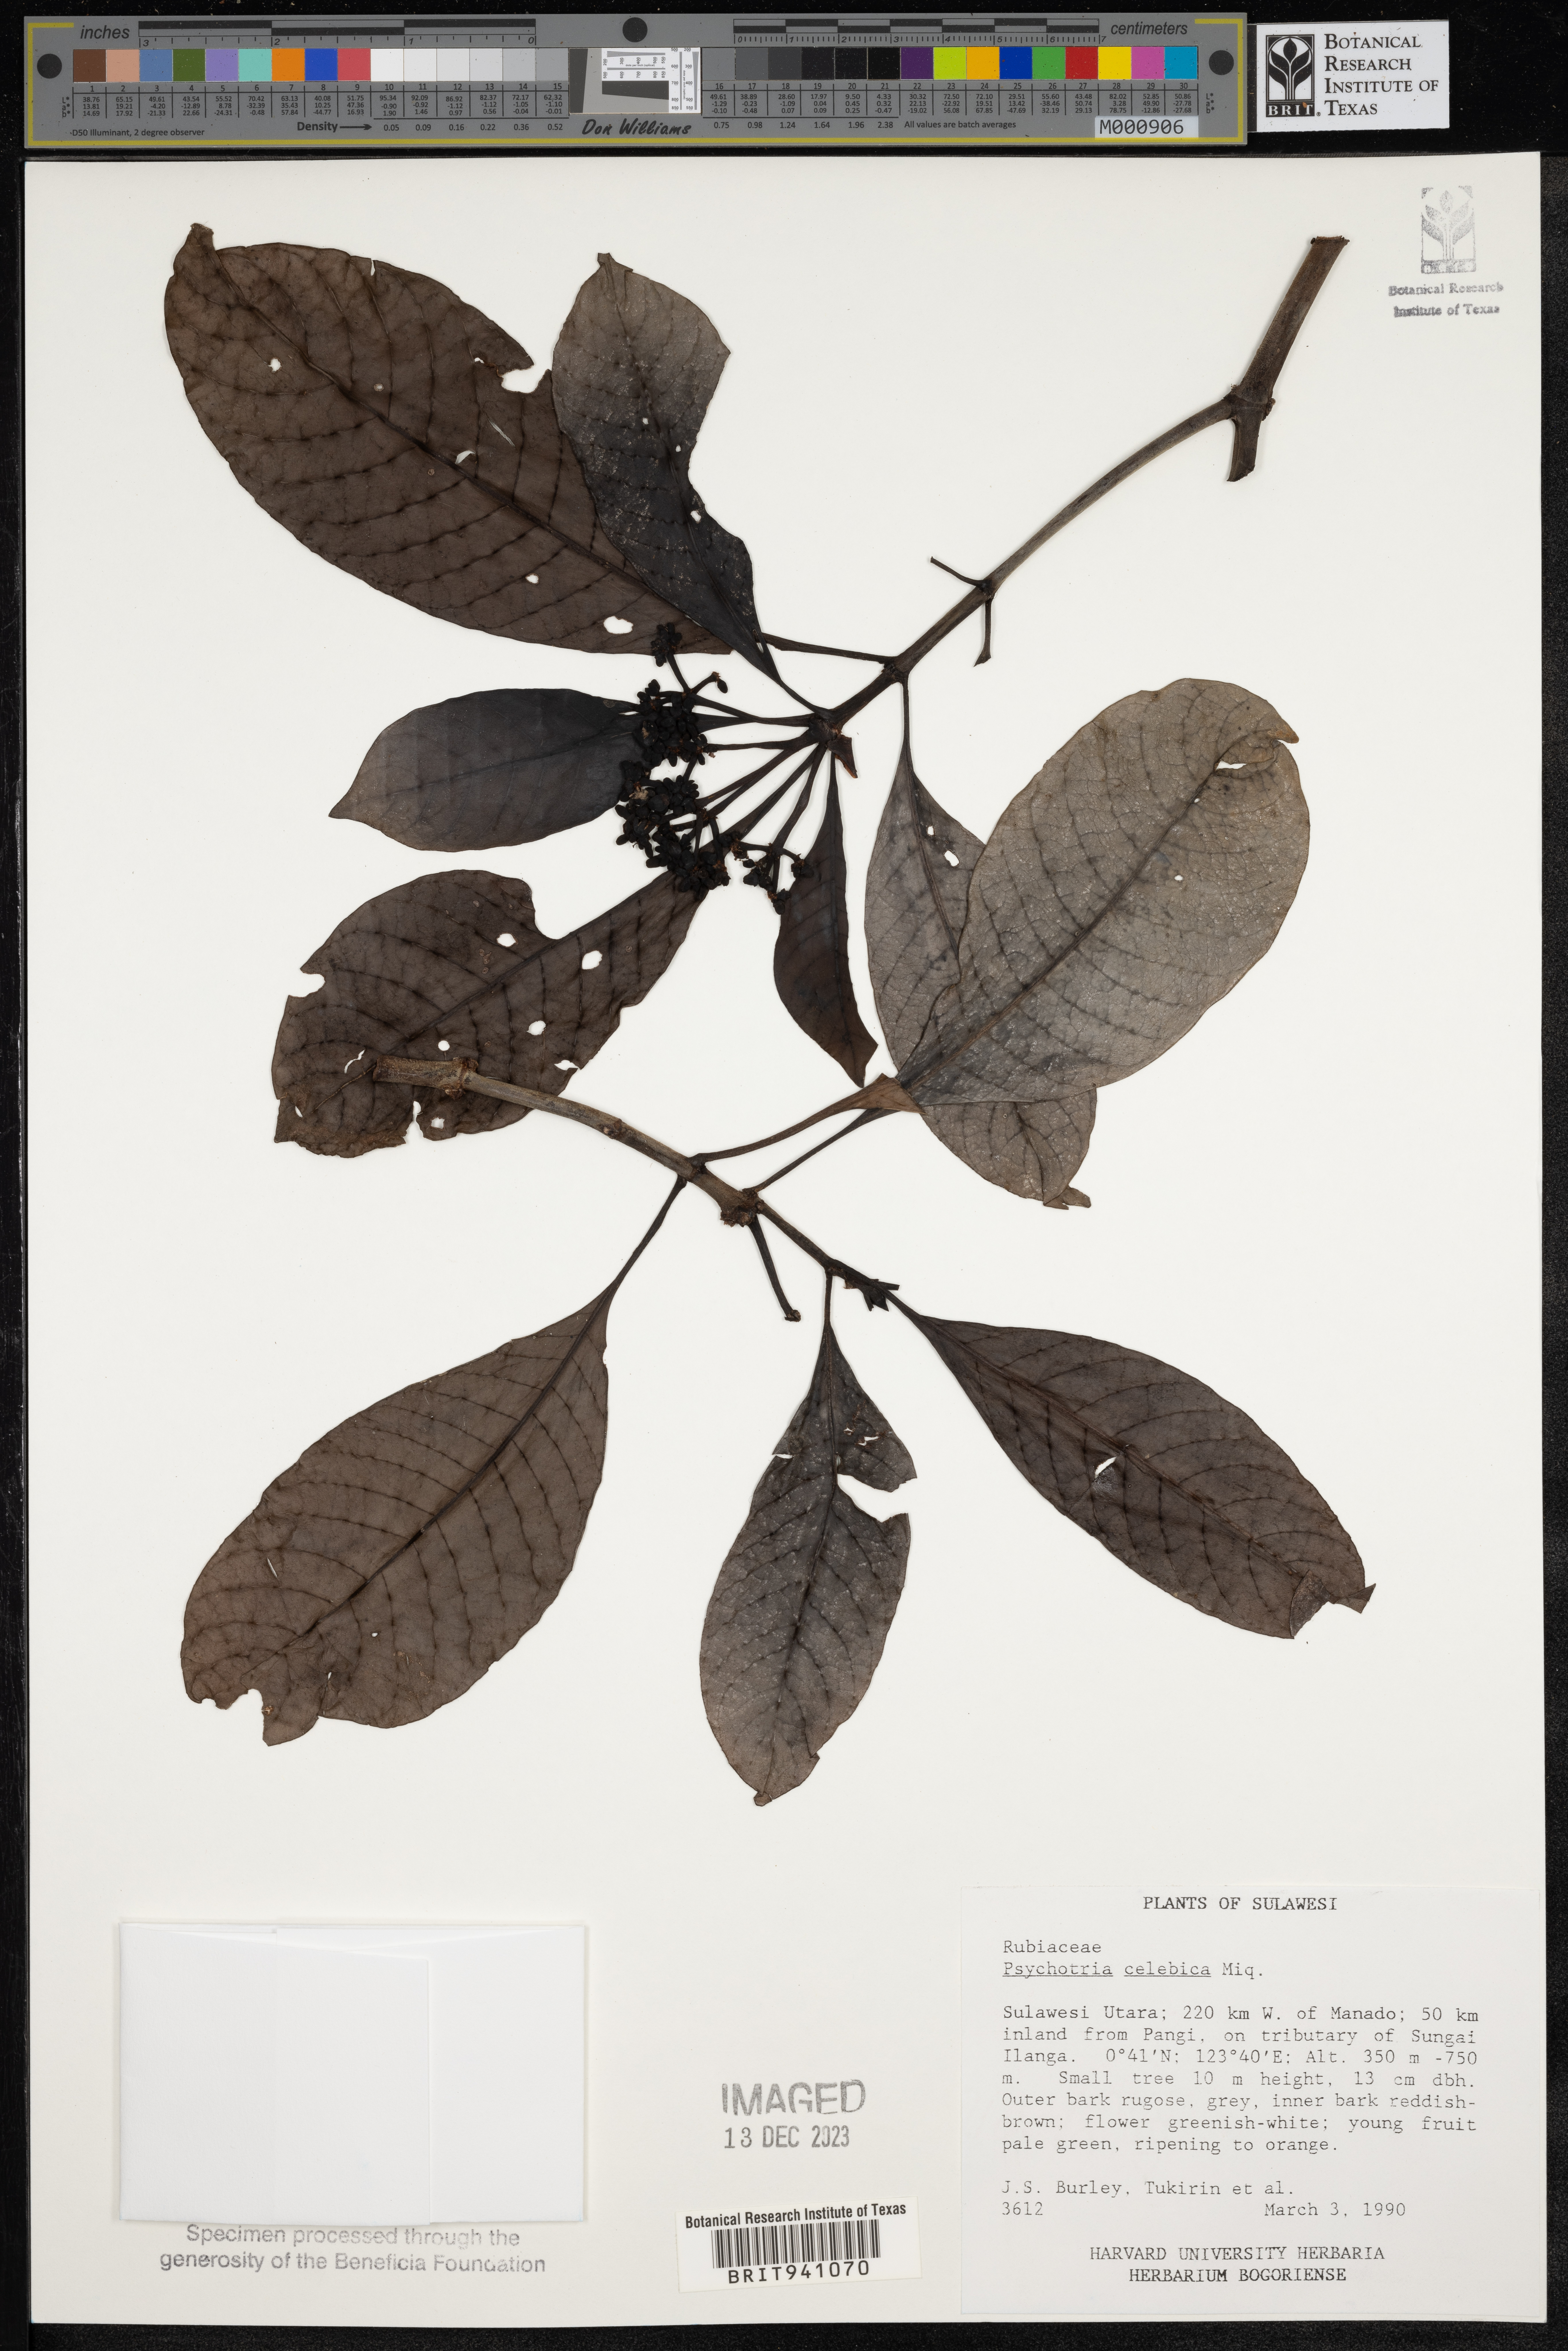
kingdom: Plantae
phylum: Tracheophyta
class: Magnoliopsida
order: Gentianales
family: Rubiaceae
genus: Psychotria
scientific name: Psychotria
